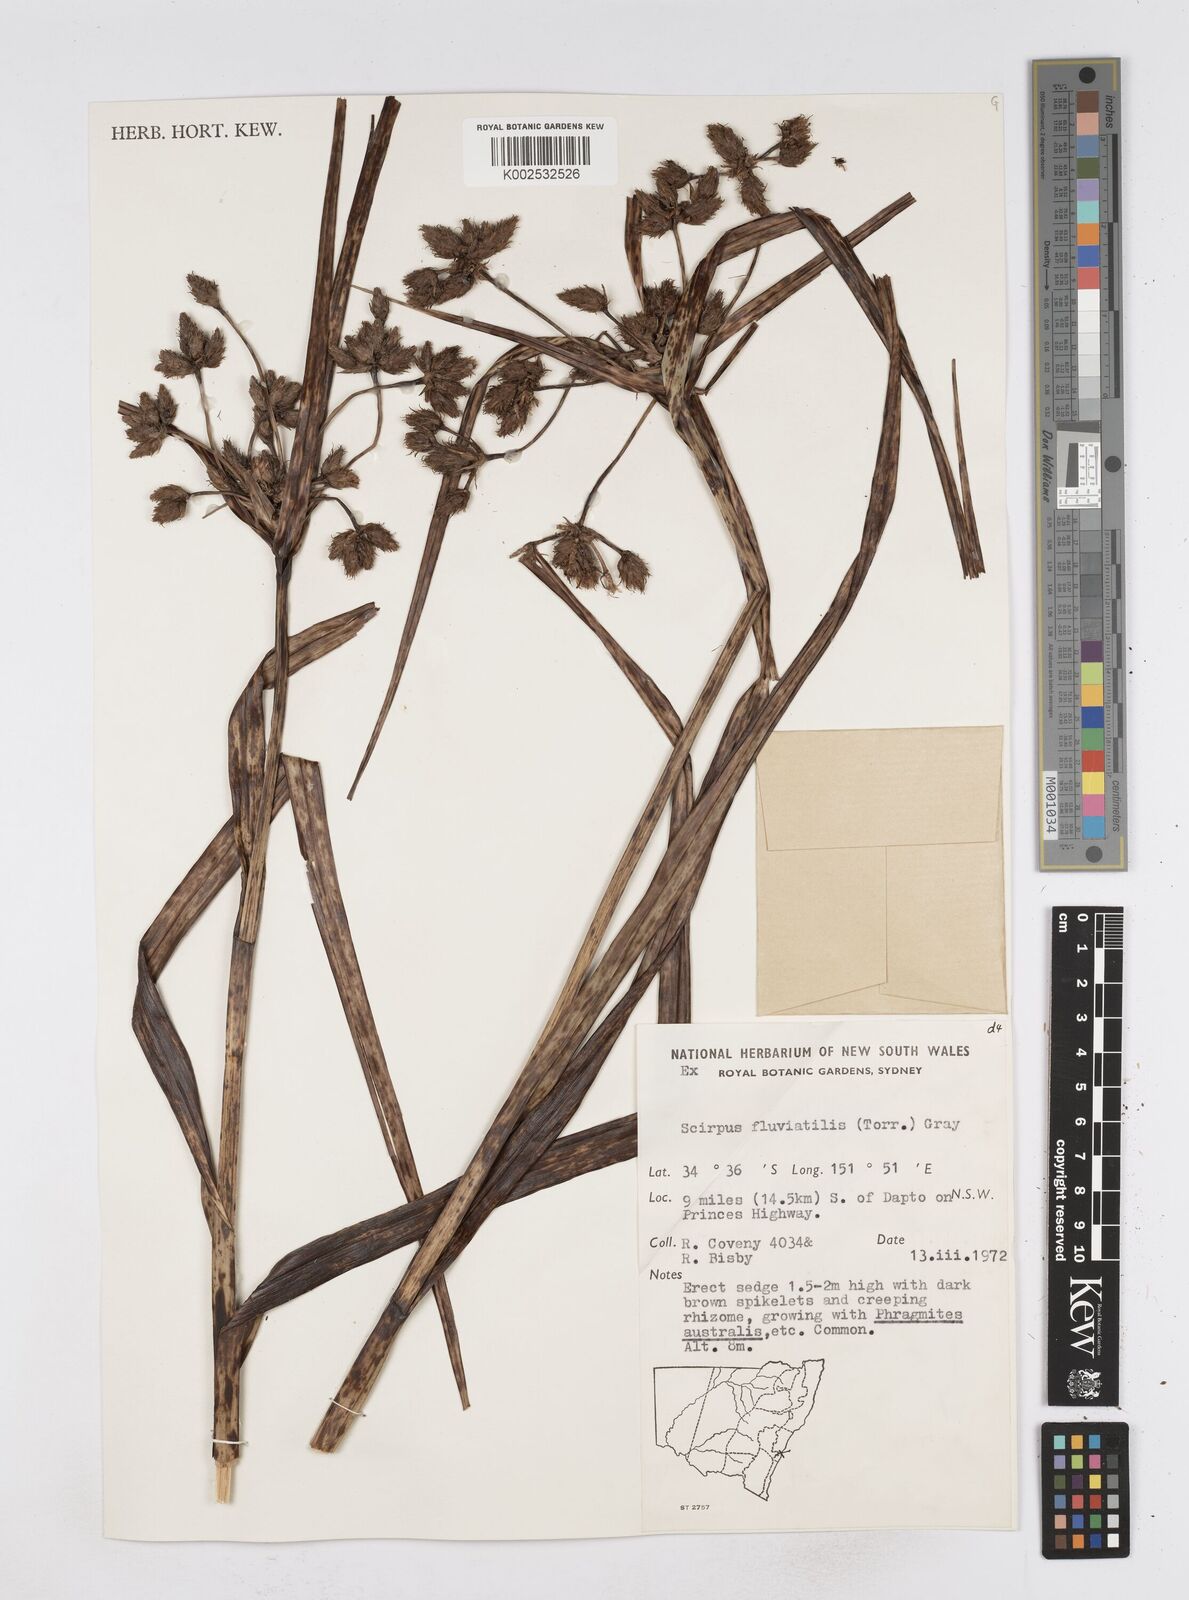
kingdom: Plantae
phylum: Tracheophyta
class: Liliopsida
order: Poales
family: Cyperaceae
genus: Bolboschoenus
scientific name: Bolboschoenus maritimus
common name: Sea club-rush
